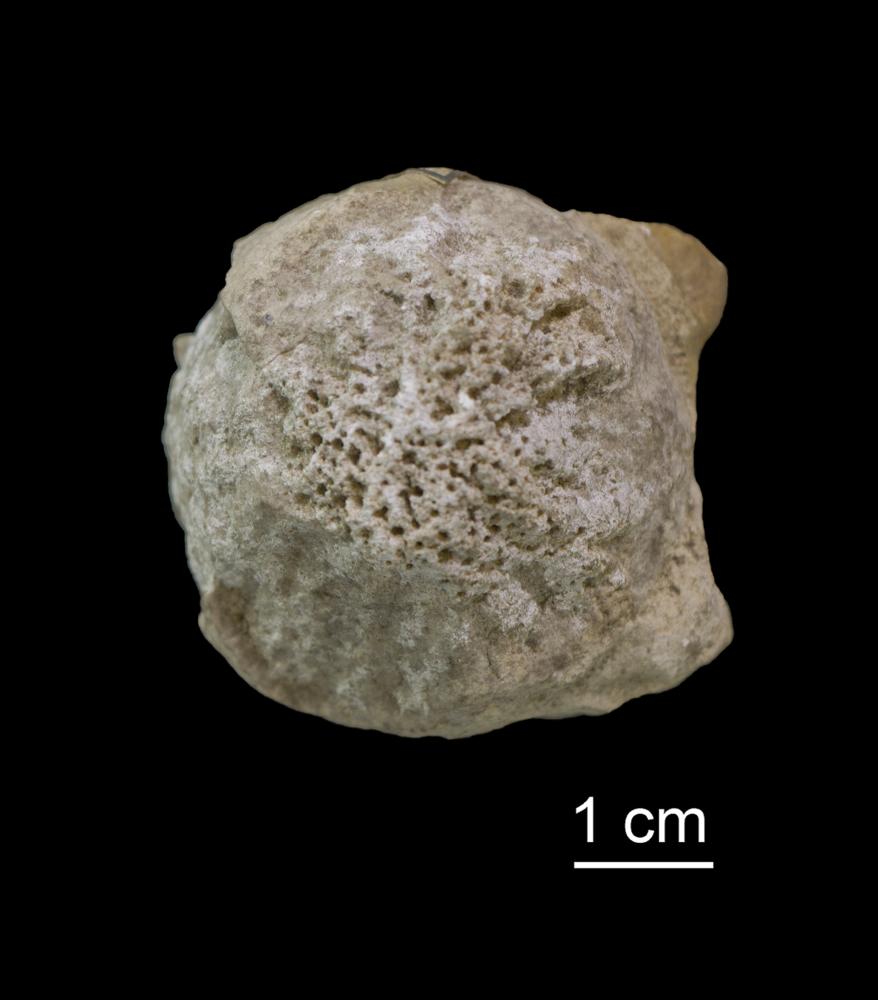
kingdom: Animalia
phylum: Porifera
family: Astylospongiidae
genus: Astylospongia
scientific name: Astylospongia Siphonia praemorsa
